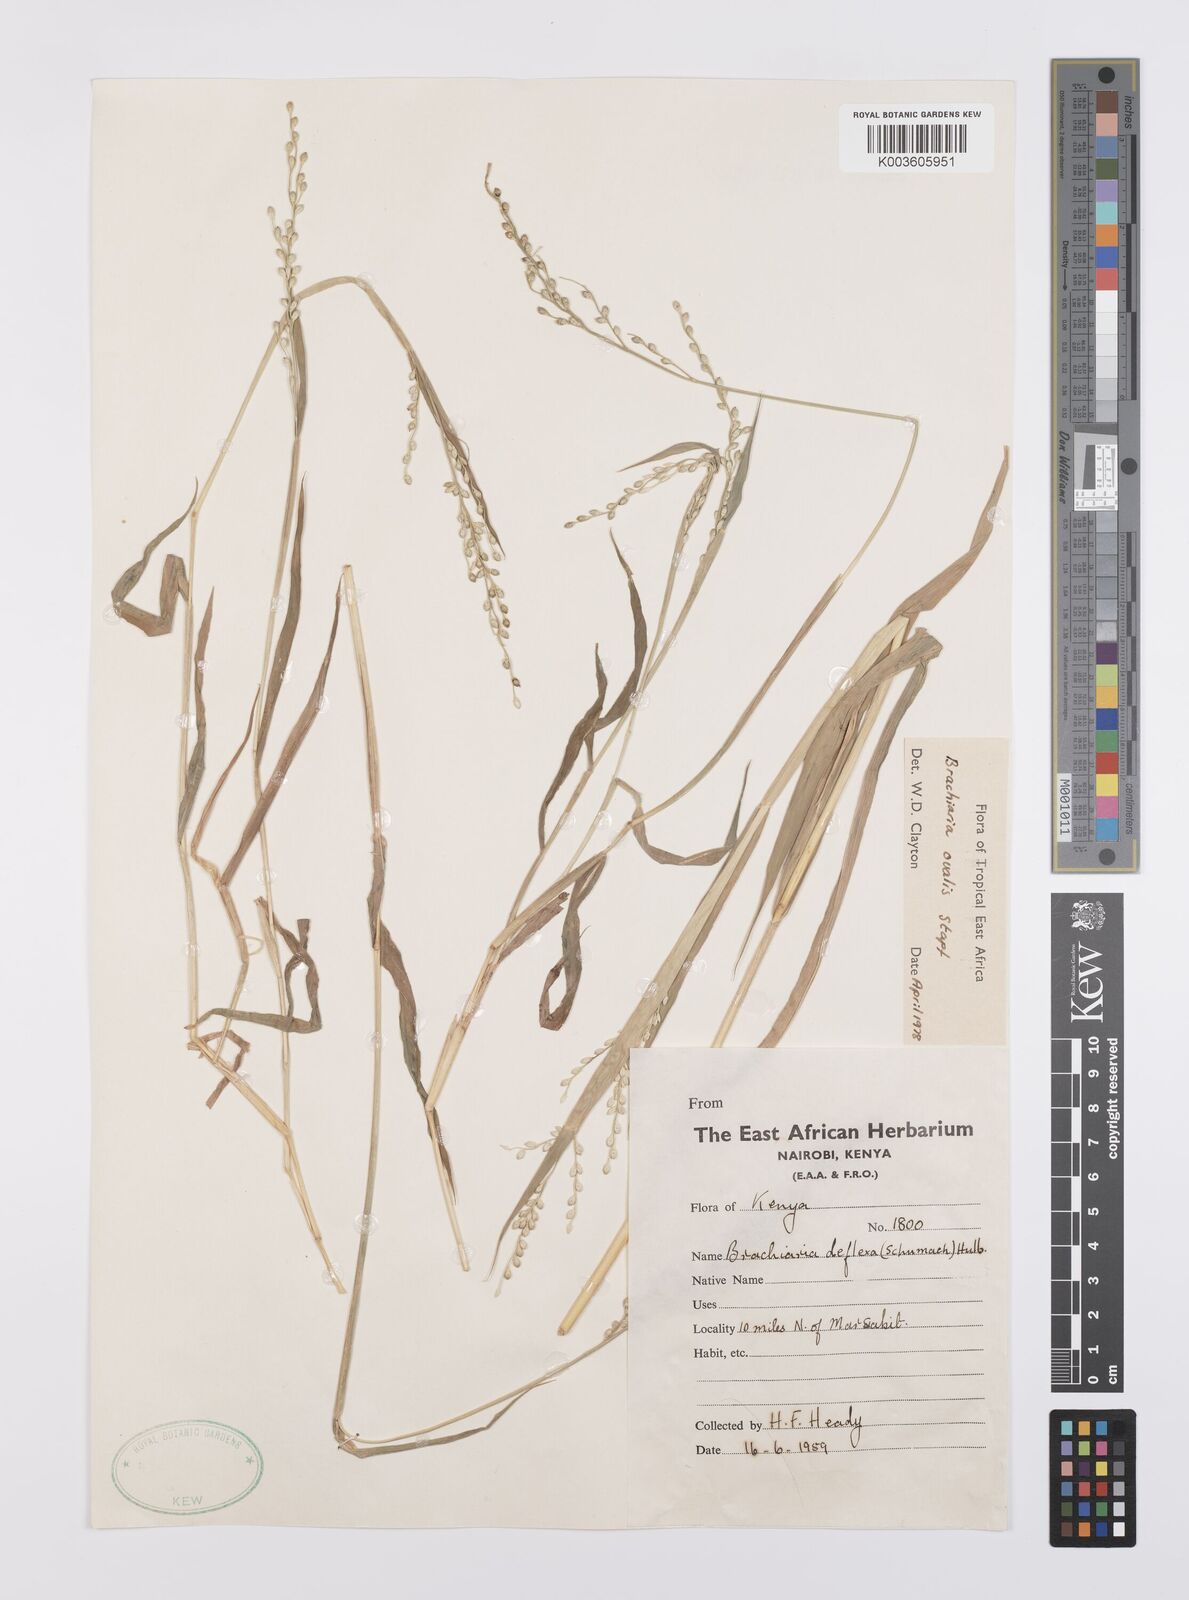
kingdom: Plantae
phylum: Tracheophyta
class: Liliopsida
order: Poales
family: Poaceae
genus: Urochloa
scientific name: Urochloa ovalis
